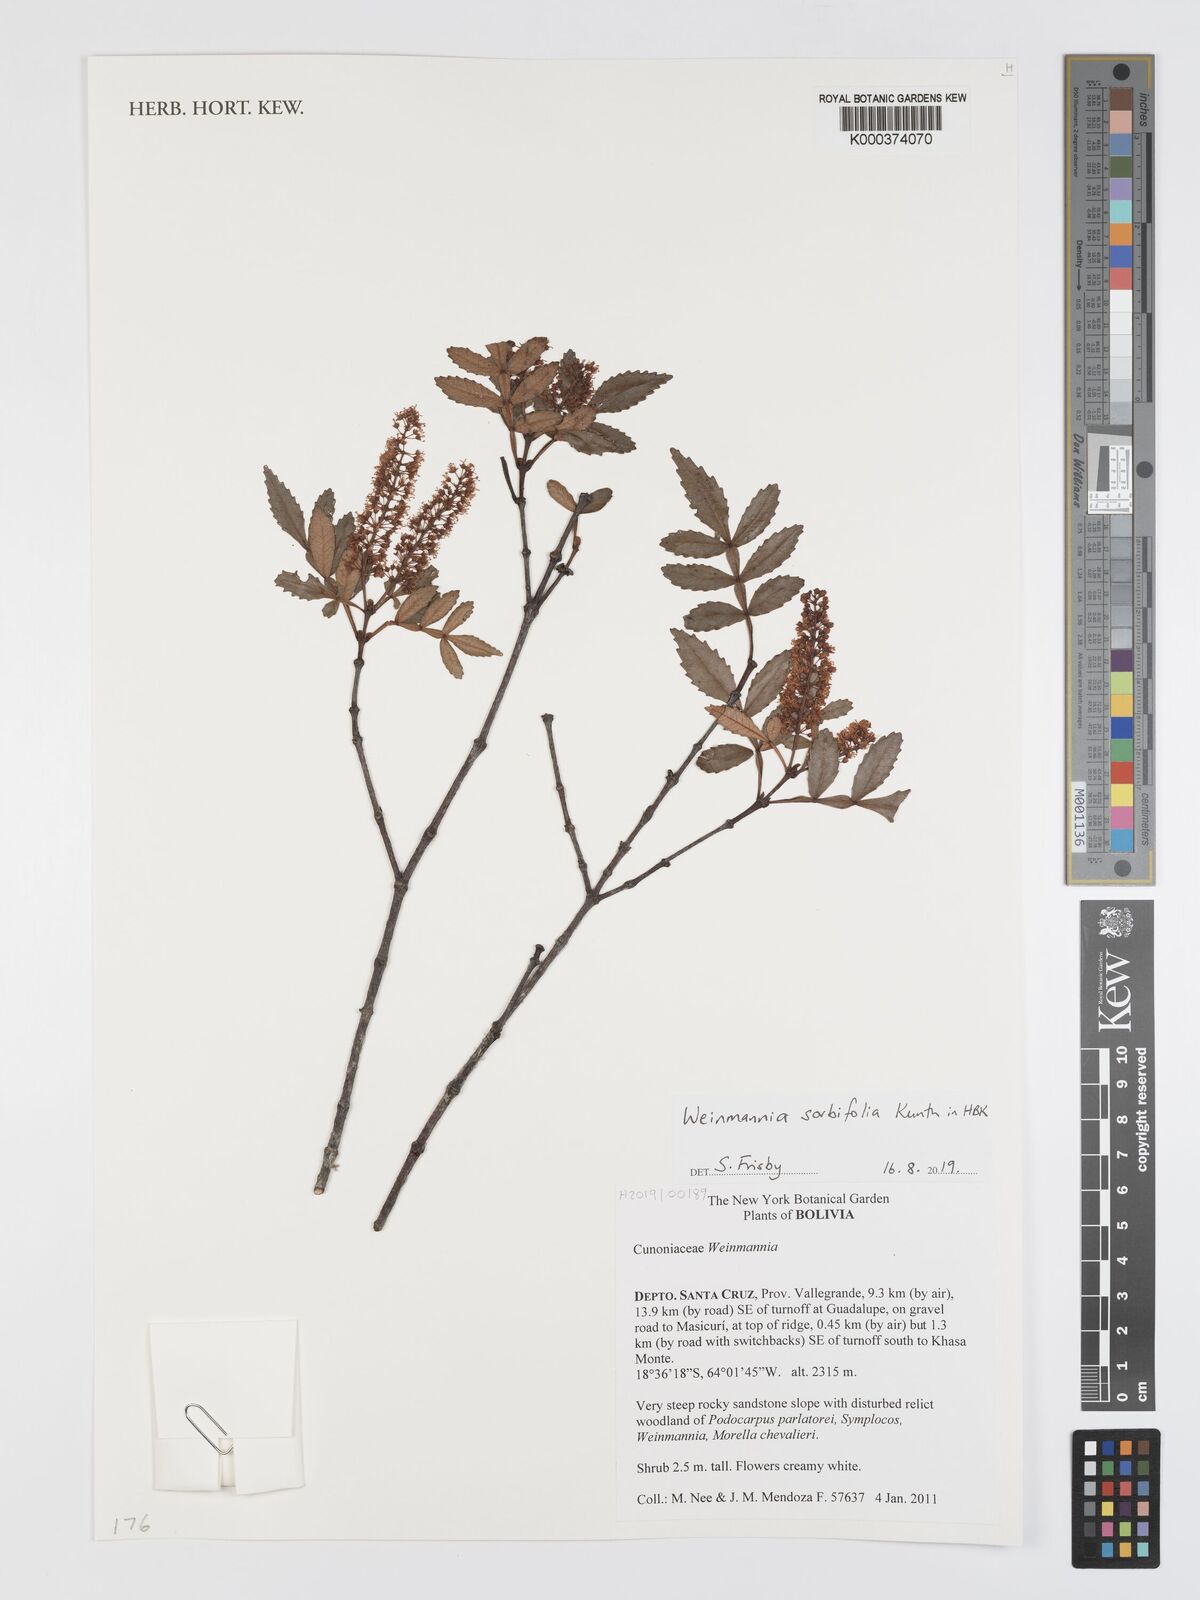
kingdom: Plantae
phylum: Tracheophyta
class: Magnoliopsida
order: Oxalidales
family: Cunoniaceae
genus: Weinmannia
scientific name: Weinmannia sorbifolia
